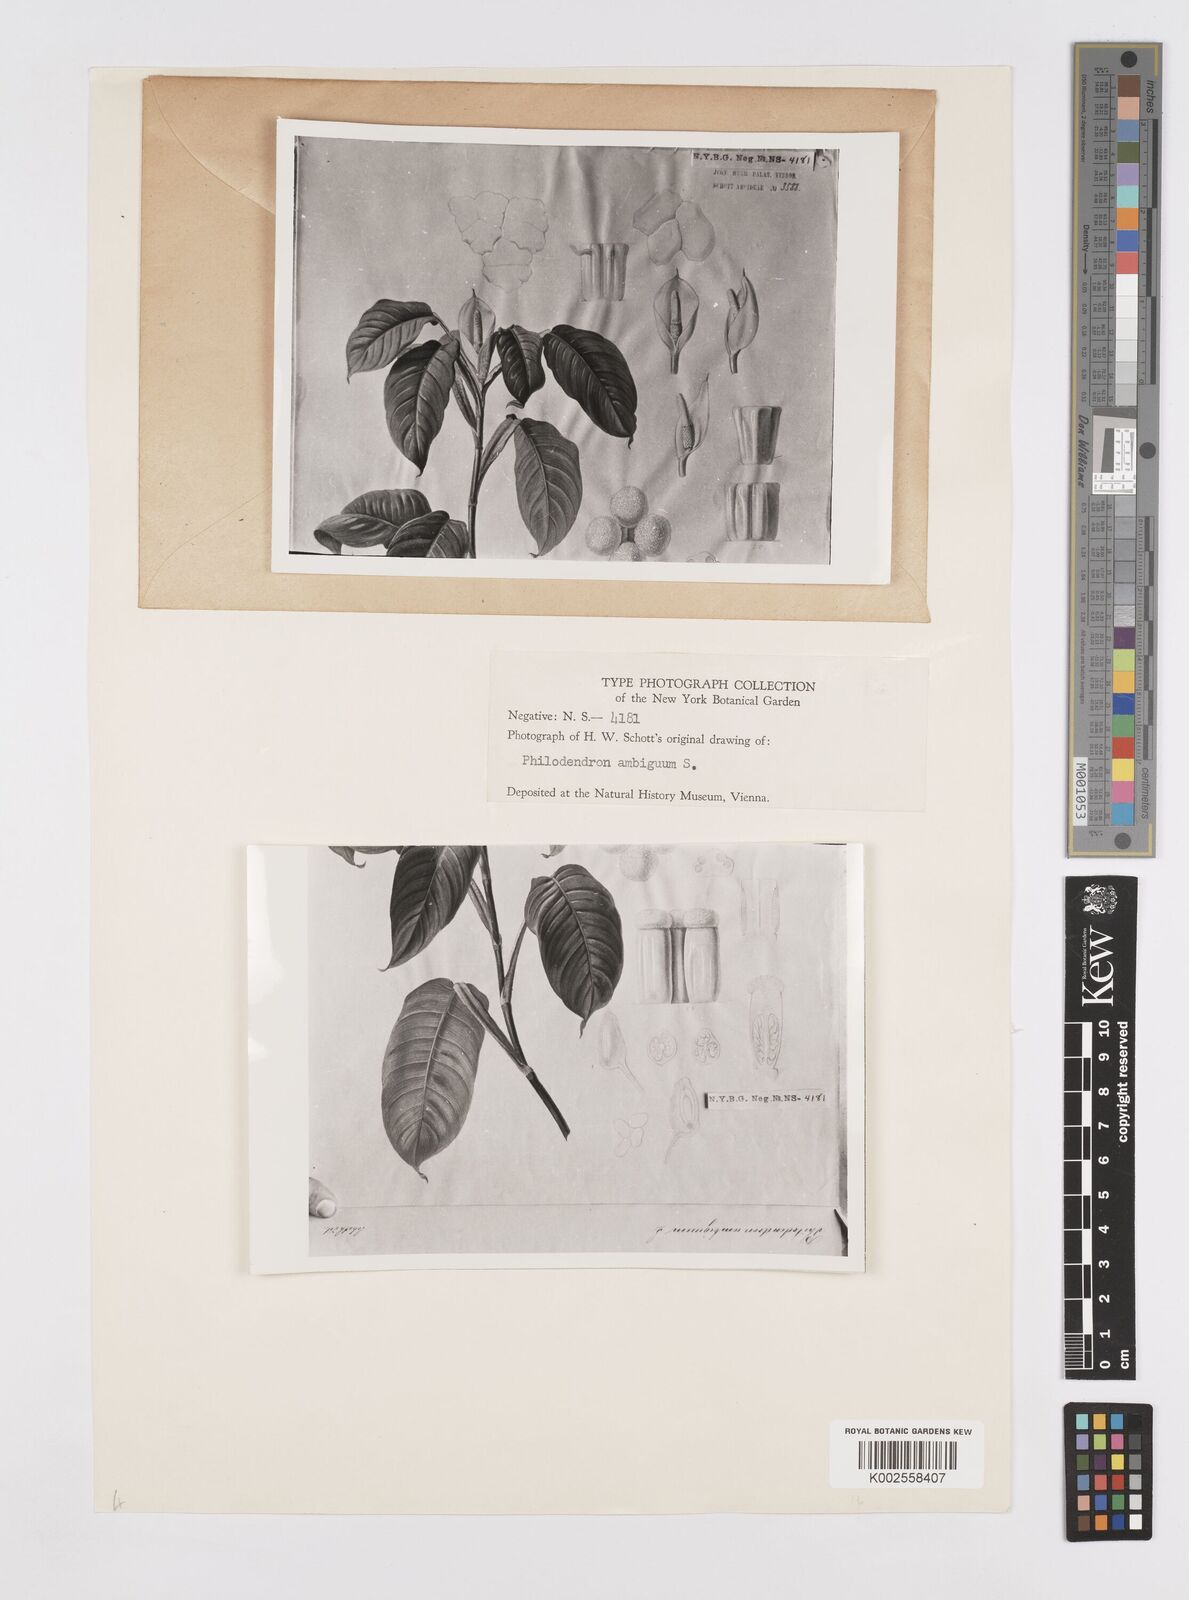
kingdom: Plantae
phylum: Tracheophyta
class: Liliopsida
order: Alismatales
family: Araceae
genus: Philodendron
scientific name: Philodendron rudgeanum
